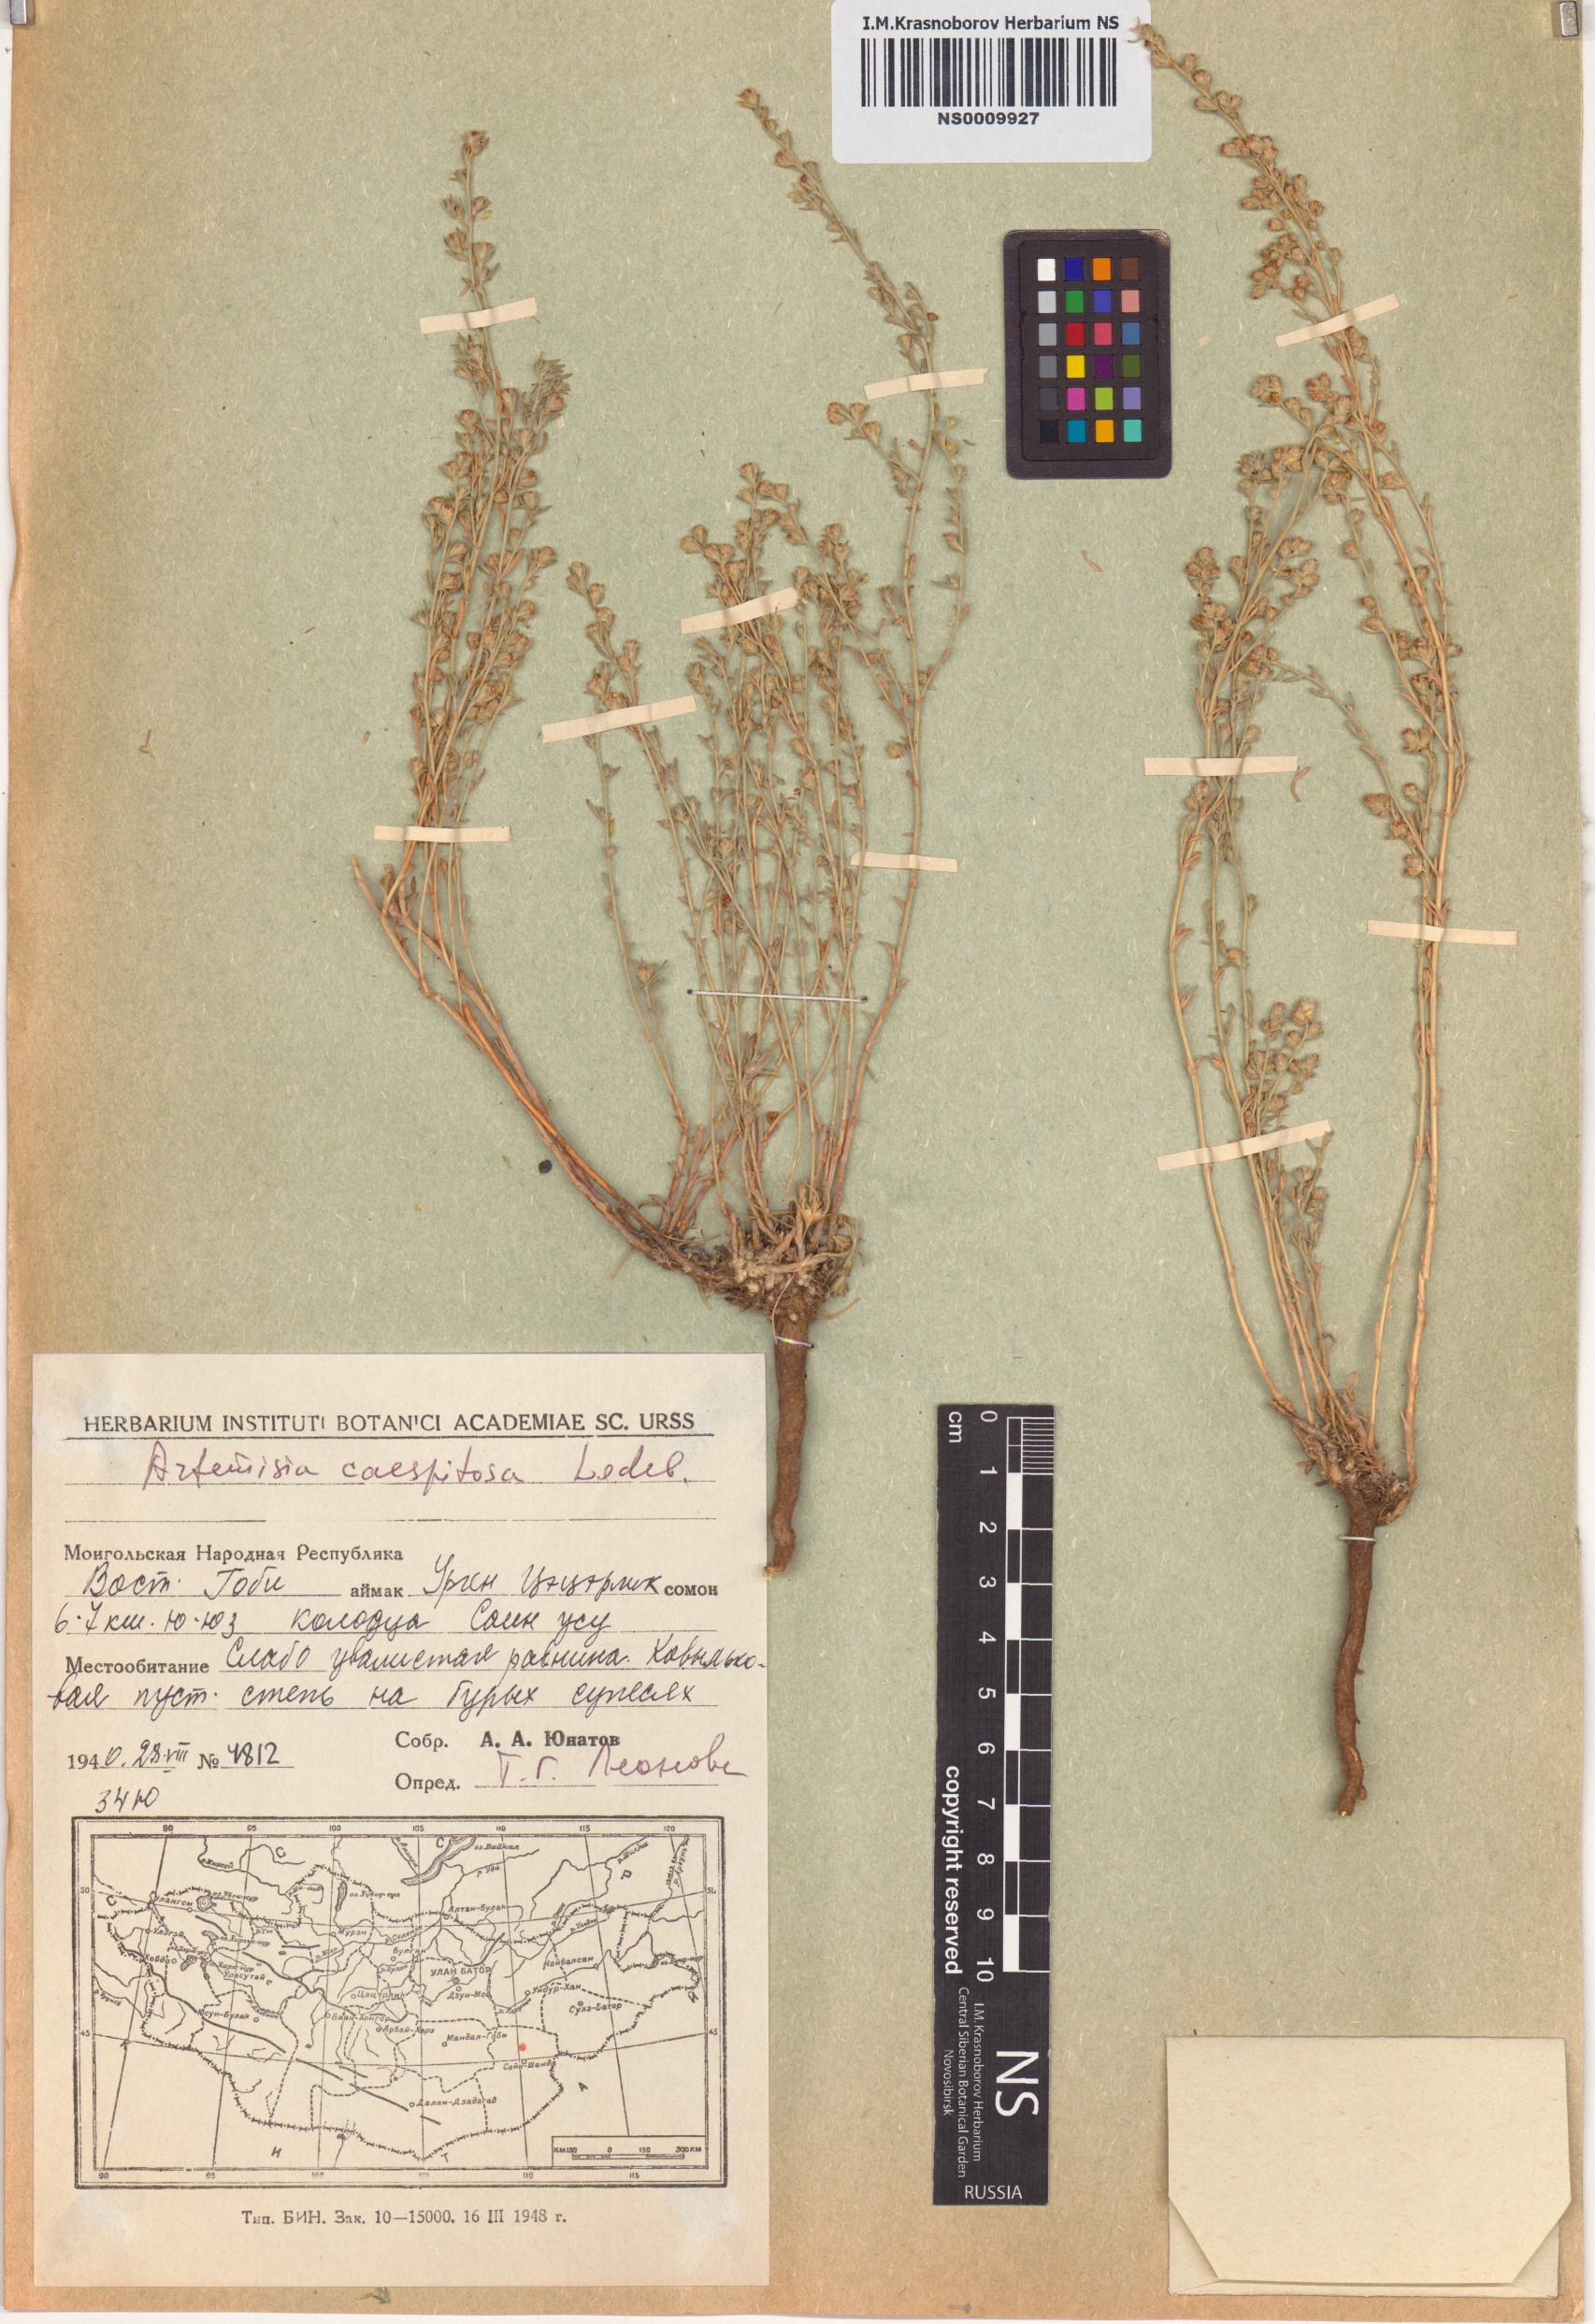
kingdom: Plantae
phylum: Tracheophyta
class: Magnoliopsida
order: Asterales
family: Asteraceae
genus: Artemisia
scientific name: Artemisia caespitosa
